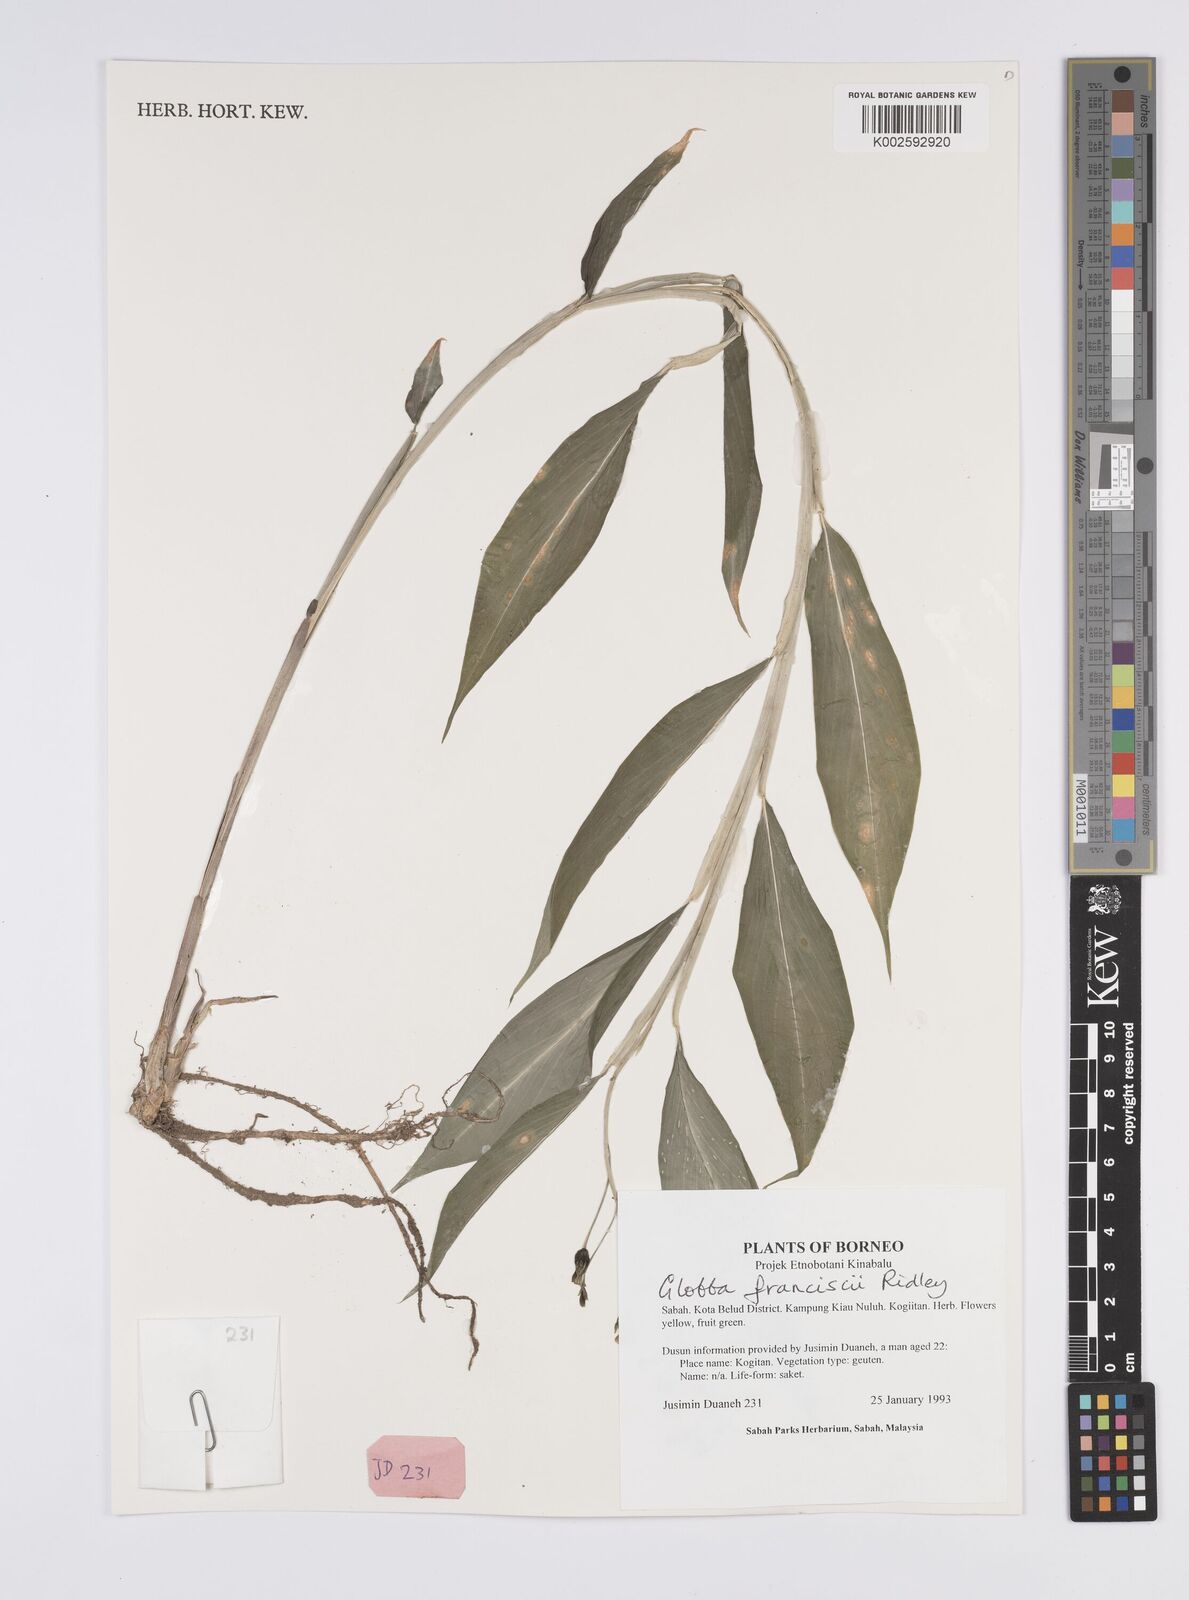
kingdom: Plantae
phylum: Tracheophyta
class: Liliopsida
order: Zingiberales
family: Zingiberaceae
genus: Globba
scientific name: Globba francisci
